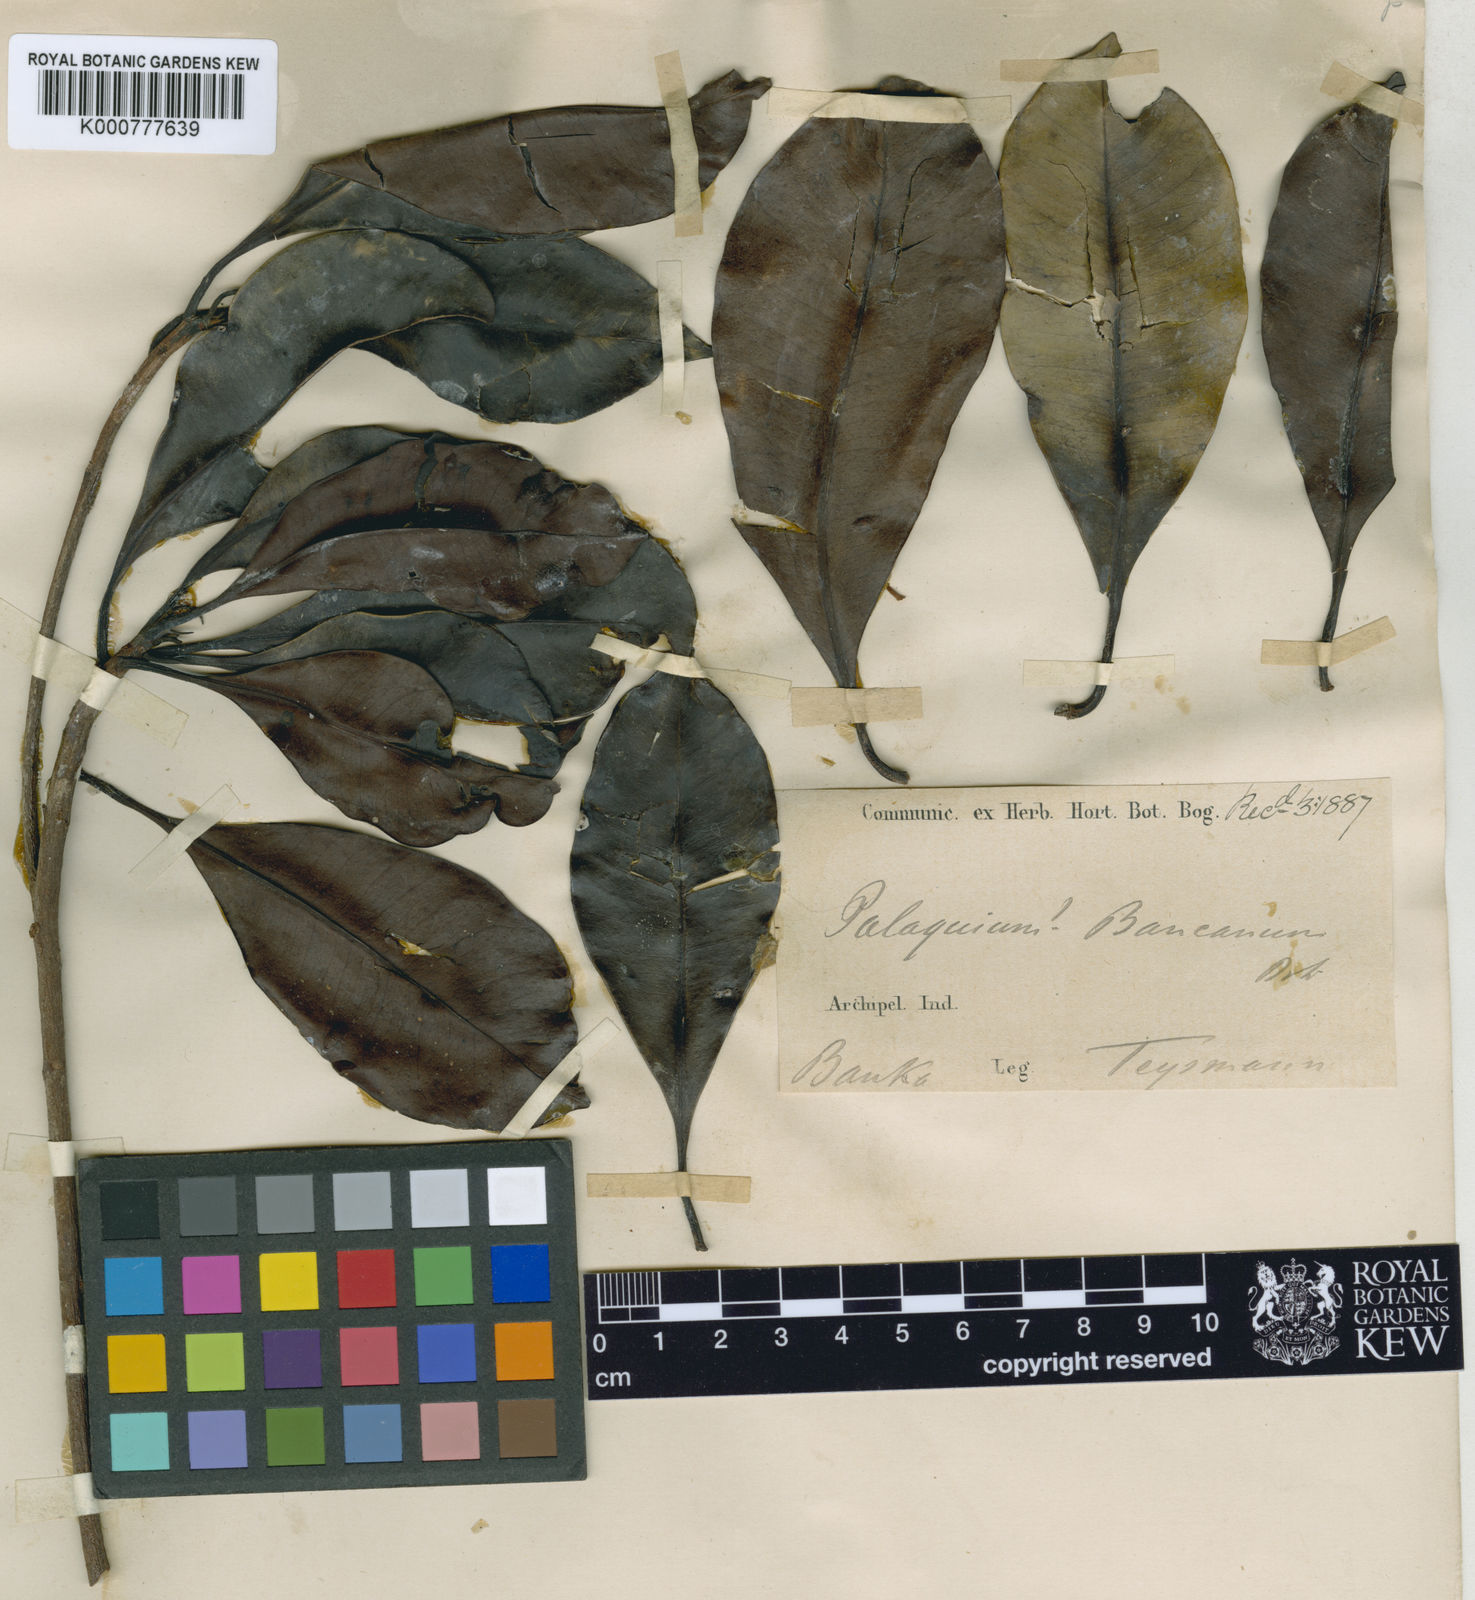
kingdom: Plantae
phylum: Tracheophyta
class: Magnoliopsida
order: Ericales
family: Sapotaceae
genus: Palaquium
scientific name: Palaquium rostratum
